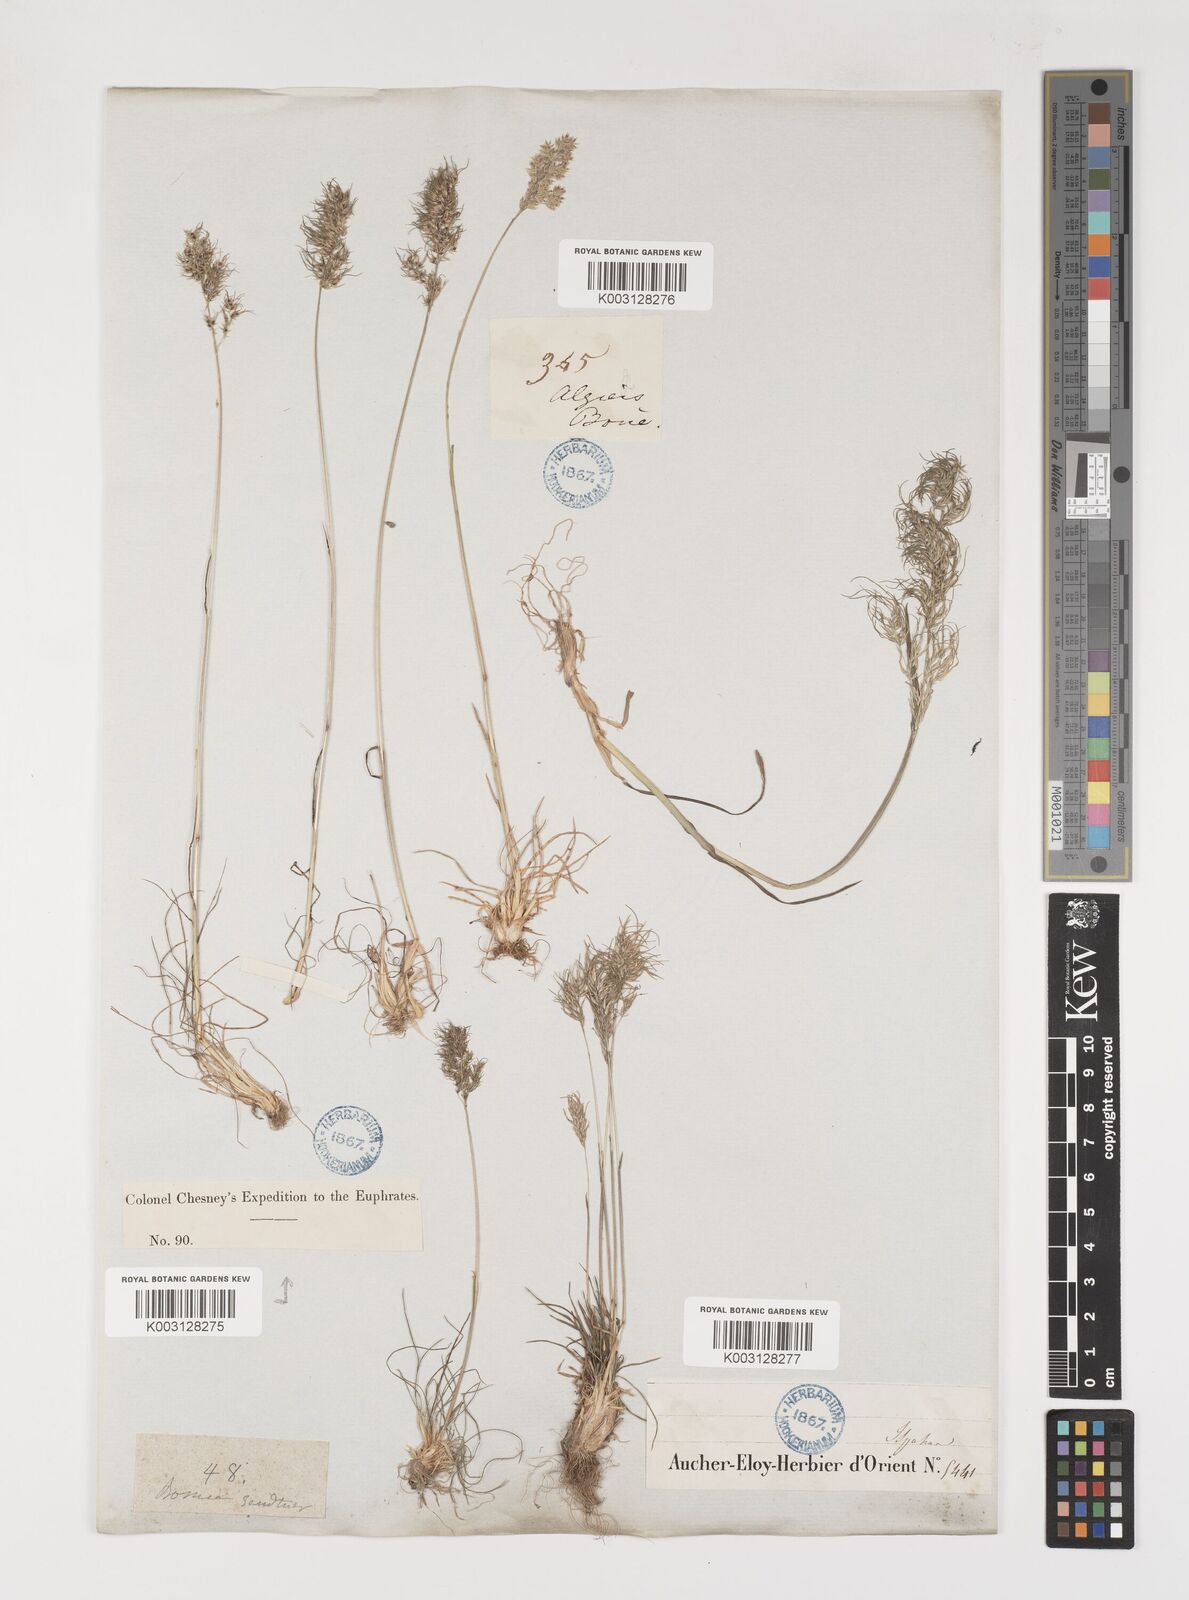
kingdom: Plantae
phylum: Tracheophyta
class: Liliopsida
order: Poales
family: Poaceae
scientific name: Poaceae
